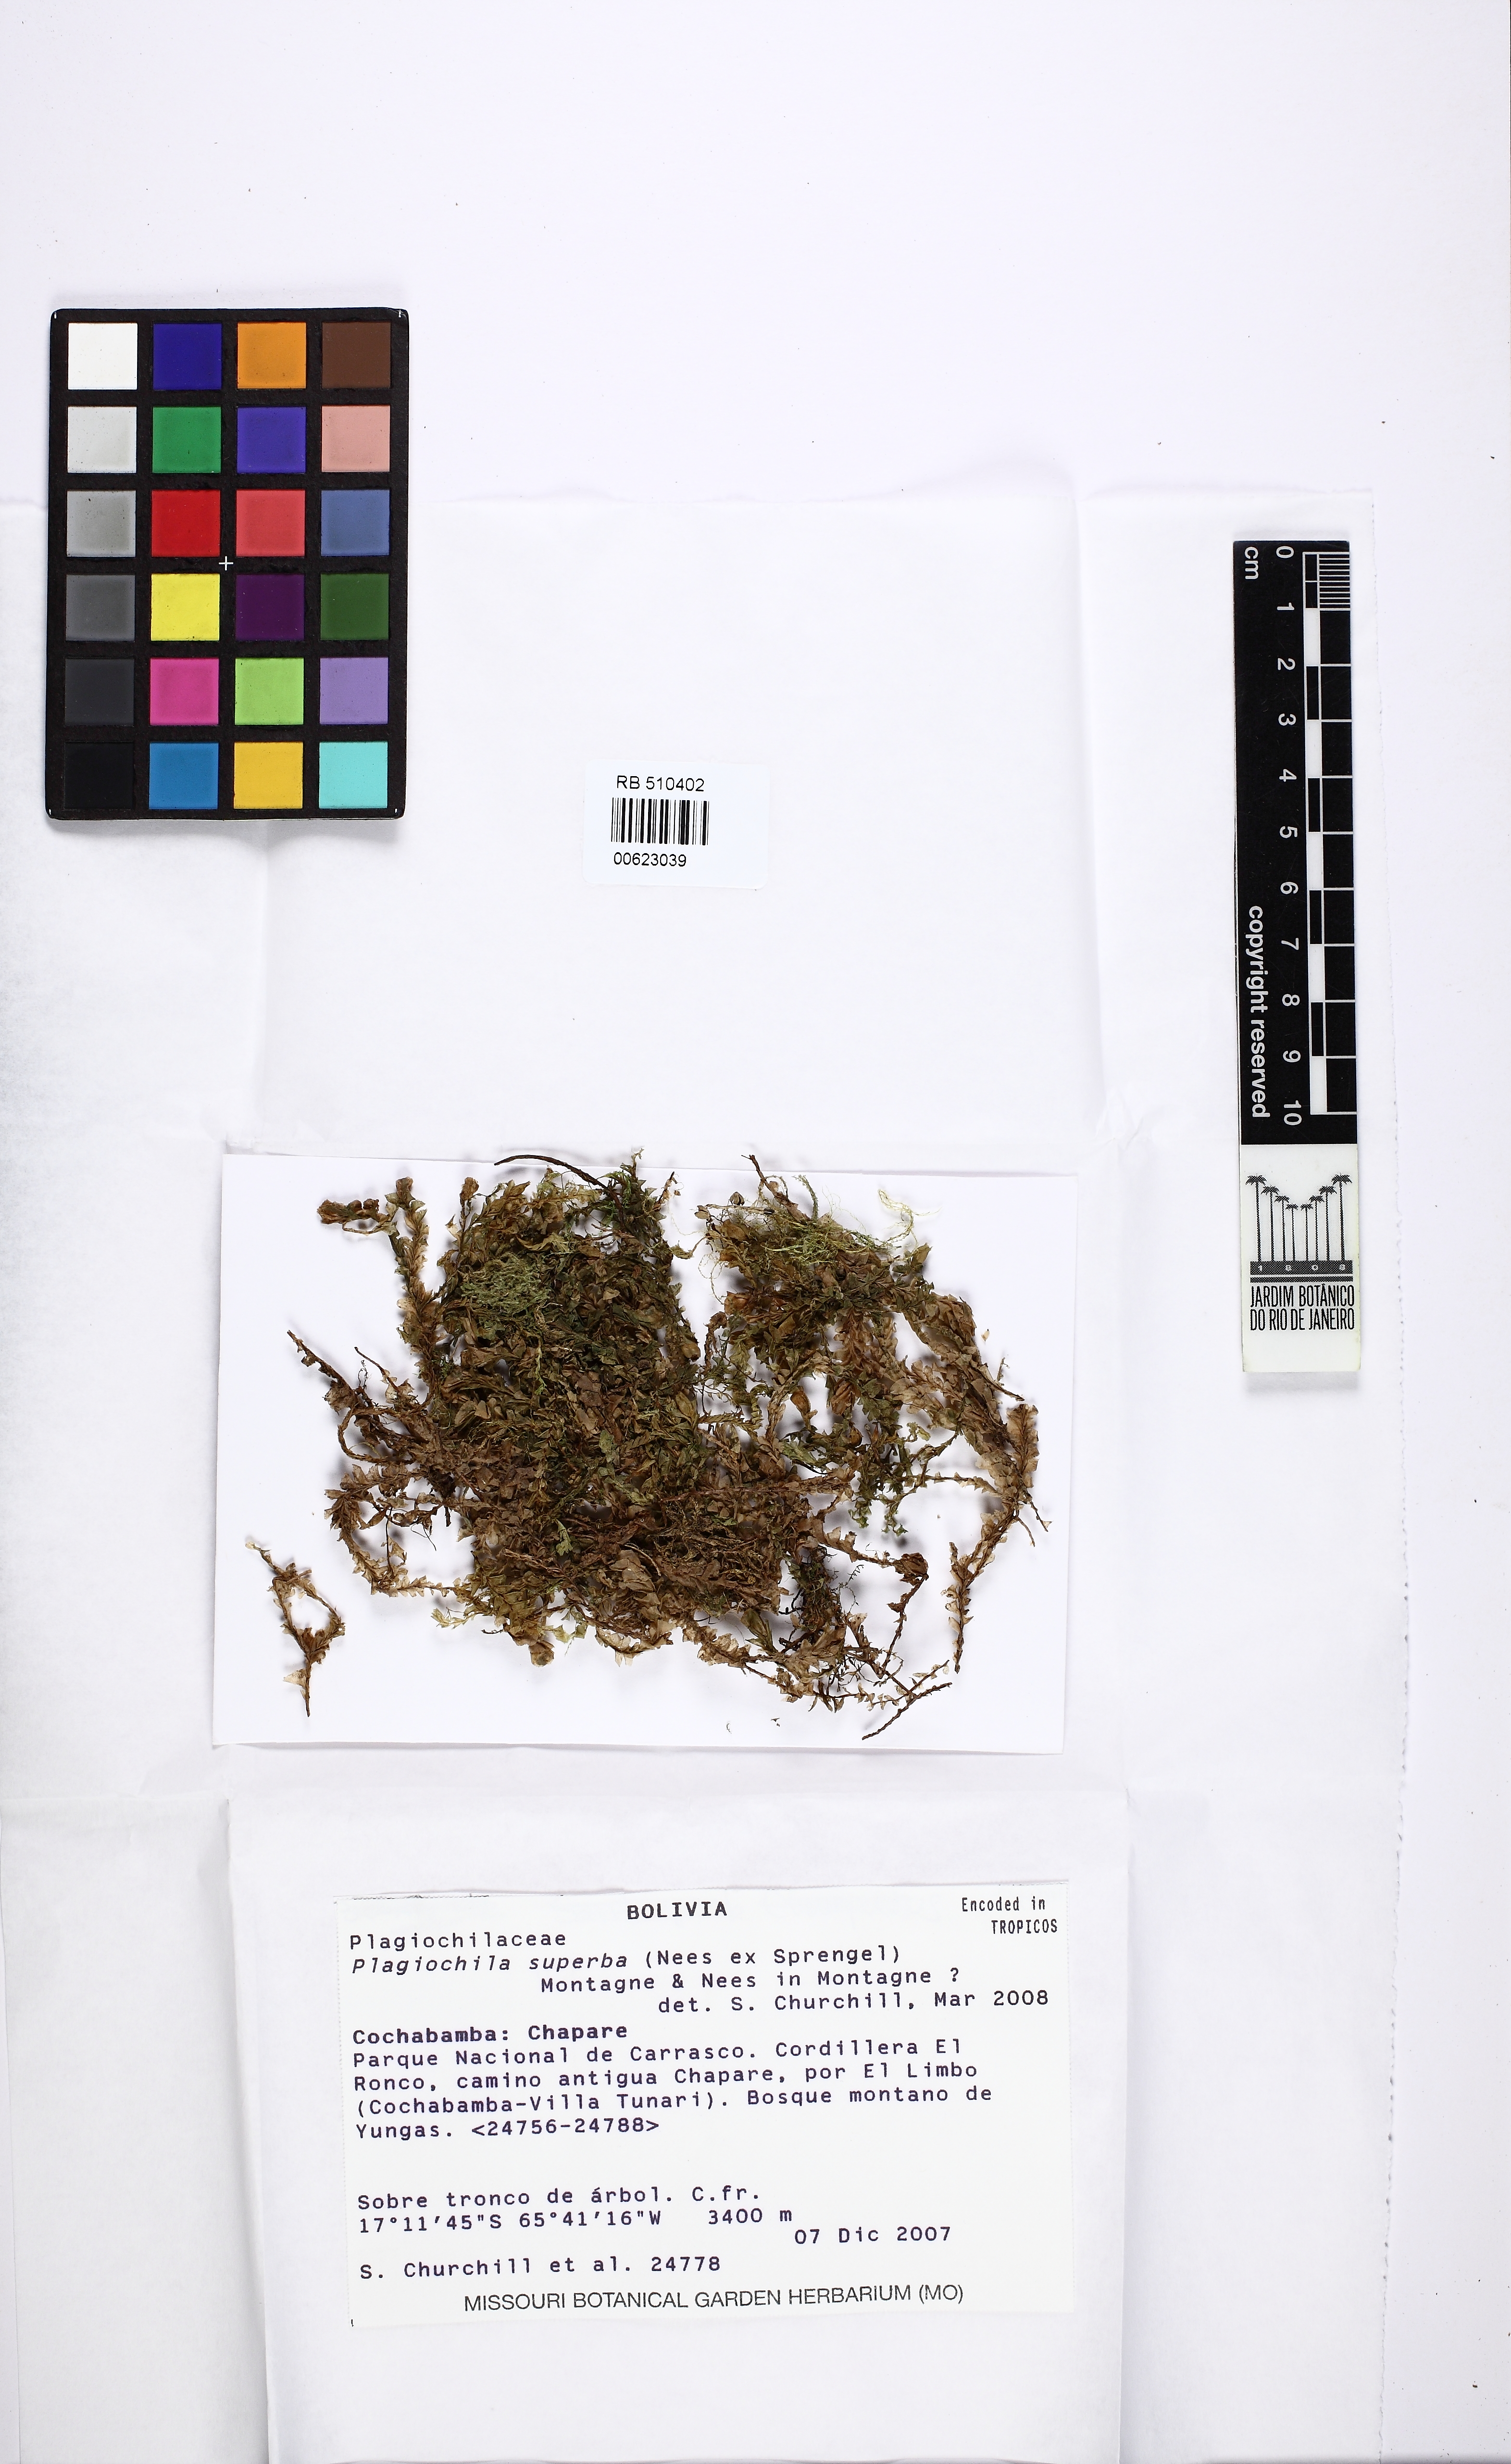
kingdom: Plantae
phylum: Marchantiophyta
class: Jungermanniopsida
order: Jungermanniales
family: Plagiochilaceae
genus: Plagiochila
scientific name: Plagiochila superba
